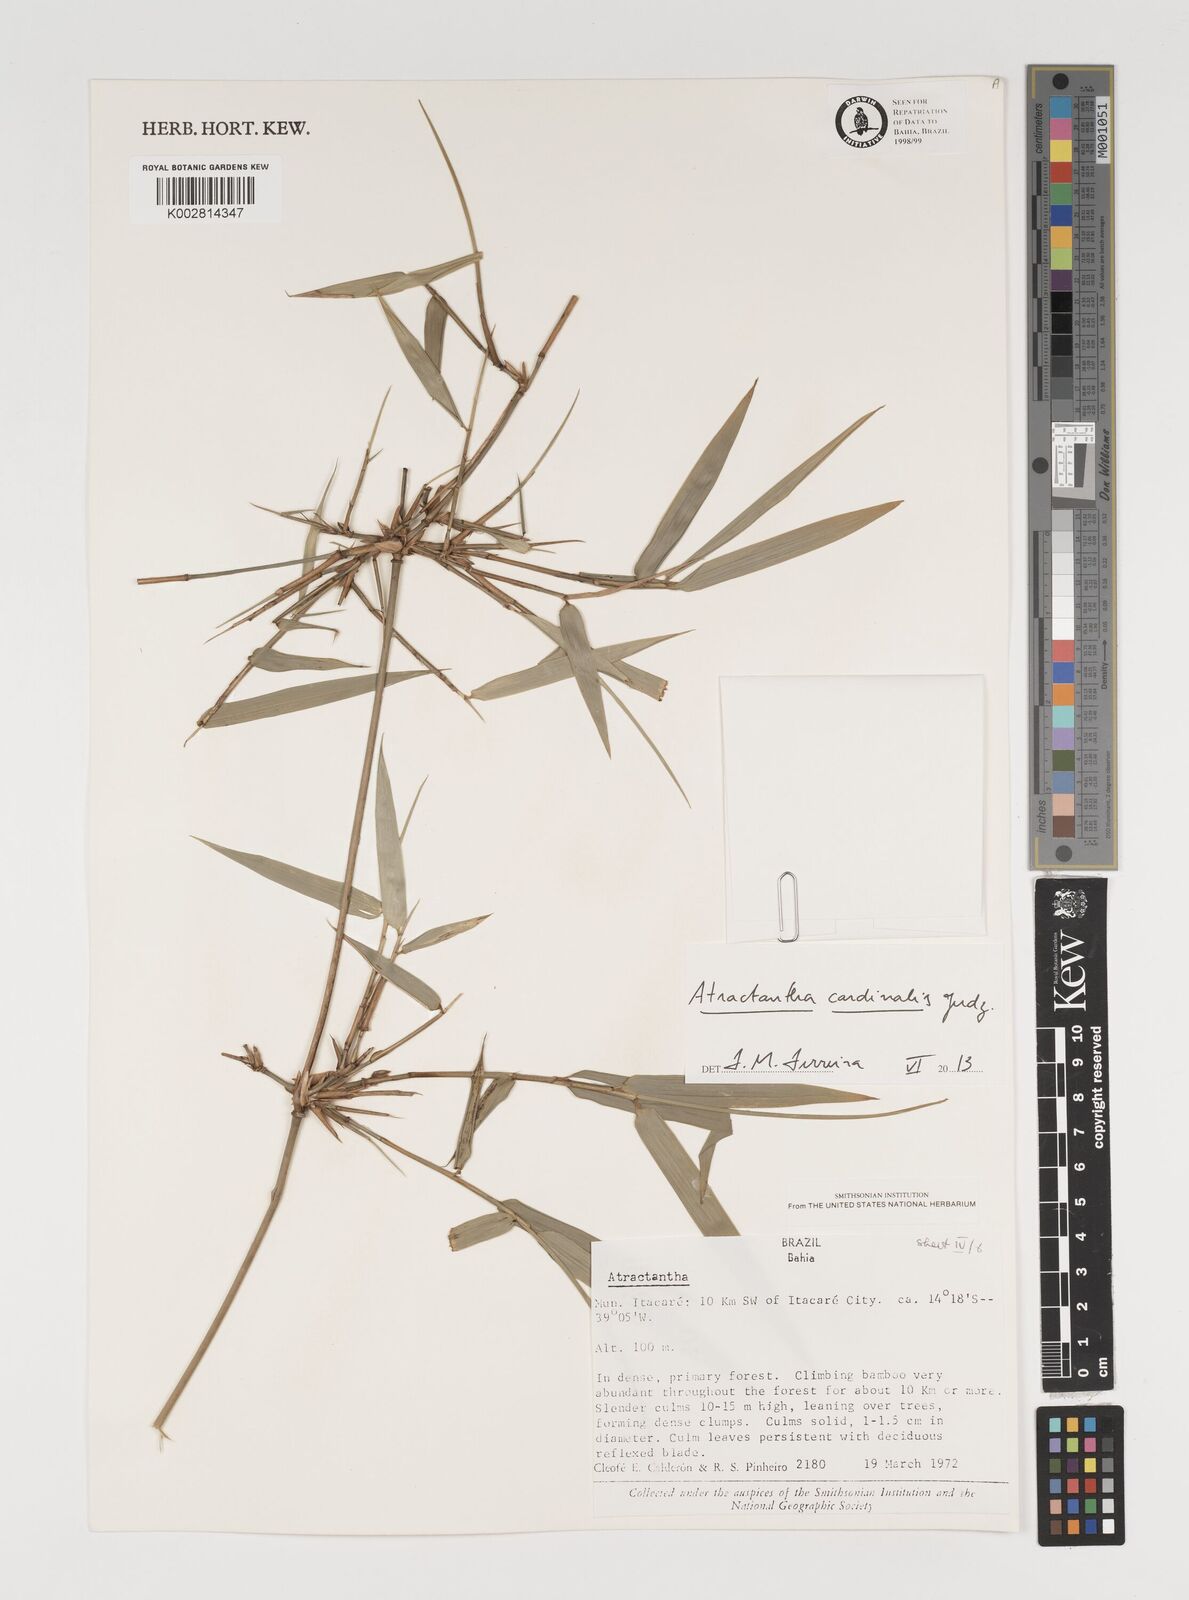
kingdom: Plantae
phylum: Tracheophyta
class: Liliopsida
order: Poales
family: Poaceae
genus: Atractantha
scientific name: Atractantha aureolanata
